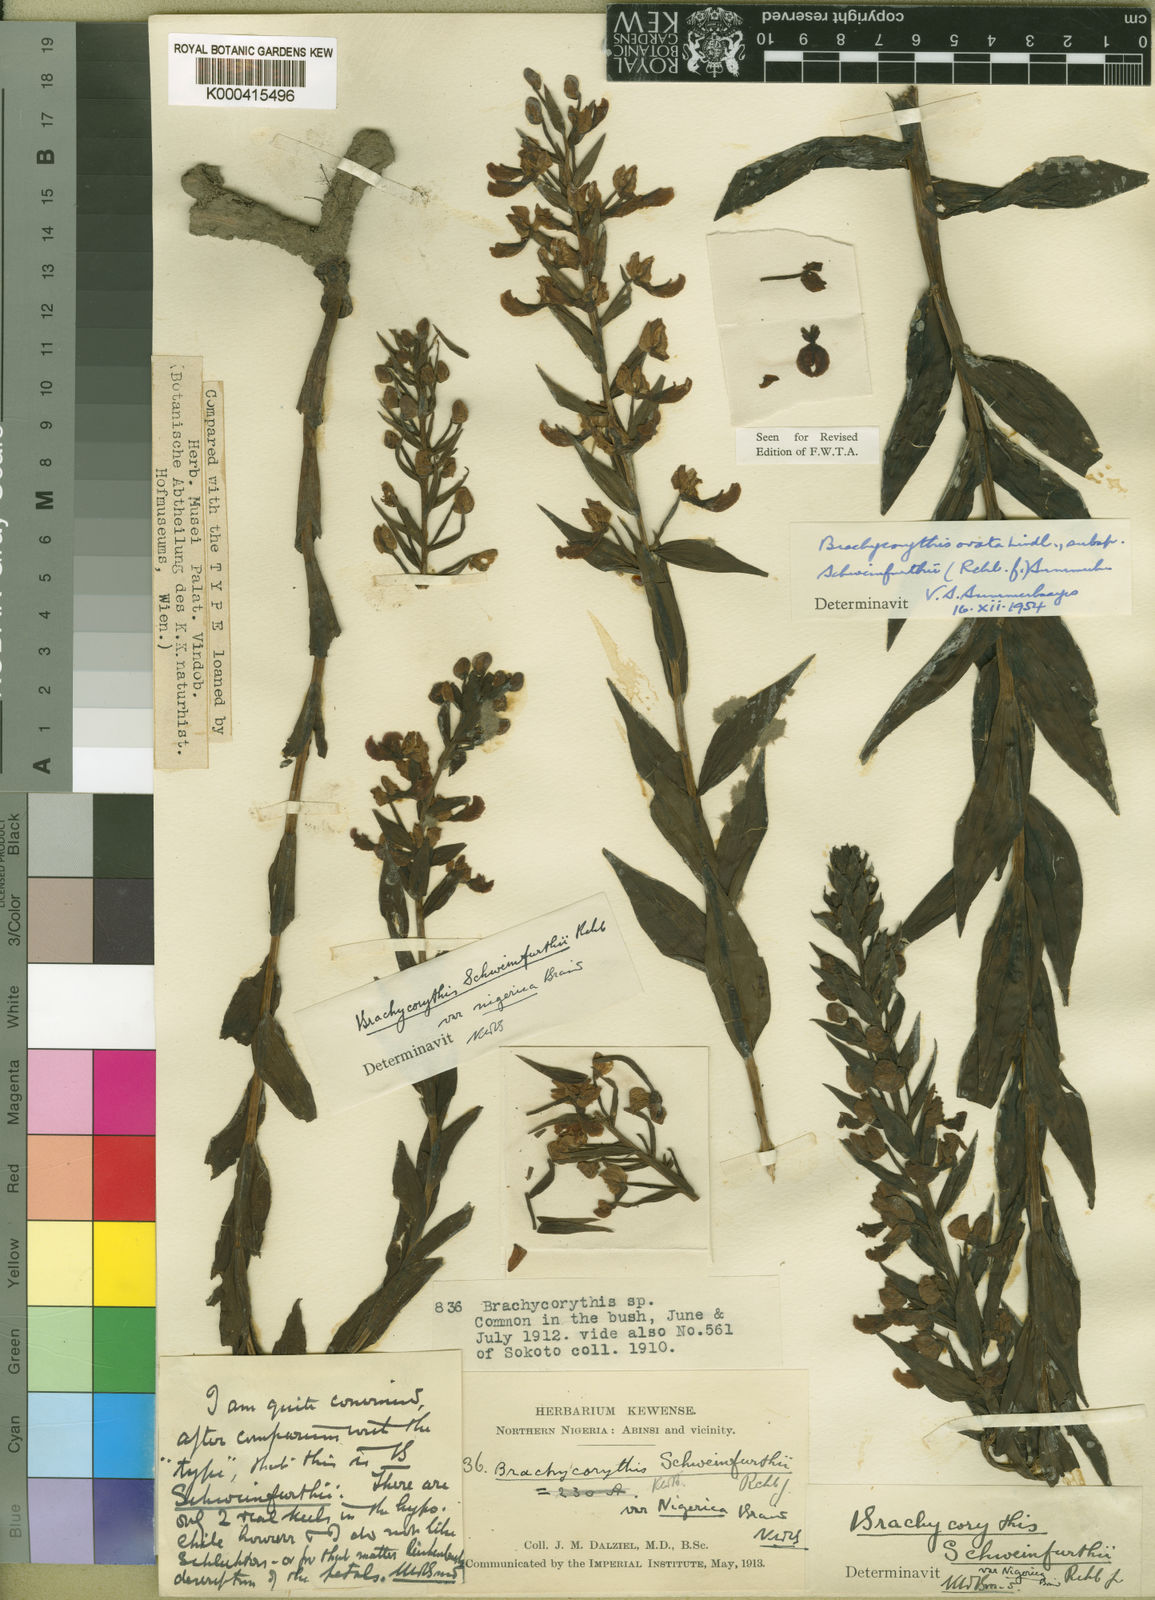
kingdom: Plantae
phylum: Tracheophyta
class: Liliopsida
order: Asparagales
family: Orchidaceae
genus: Brachycorythis
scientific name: Brachycorythis ovata
